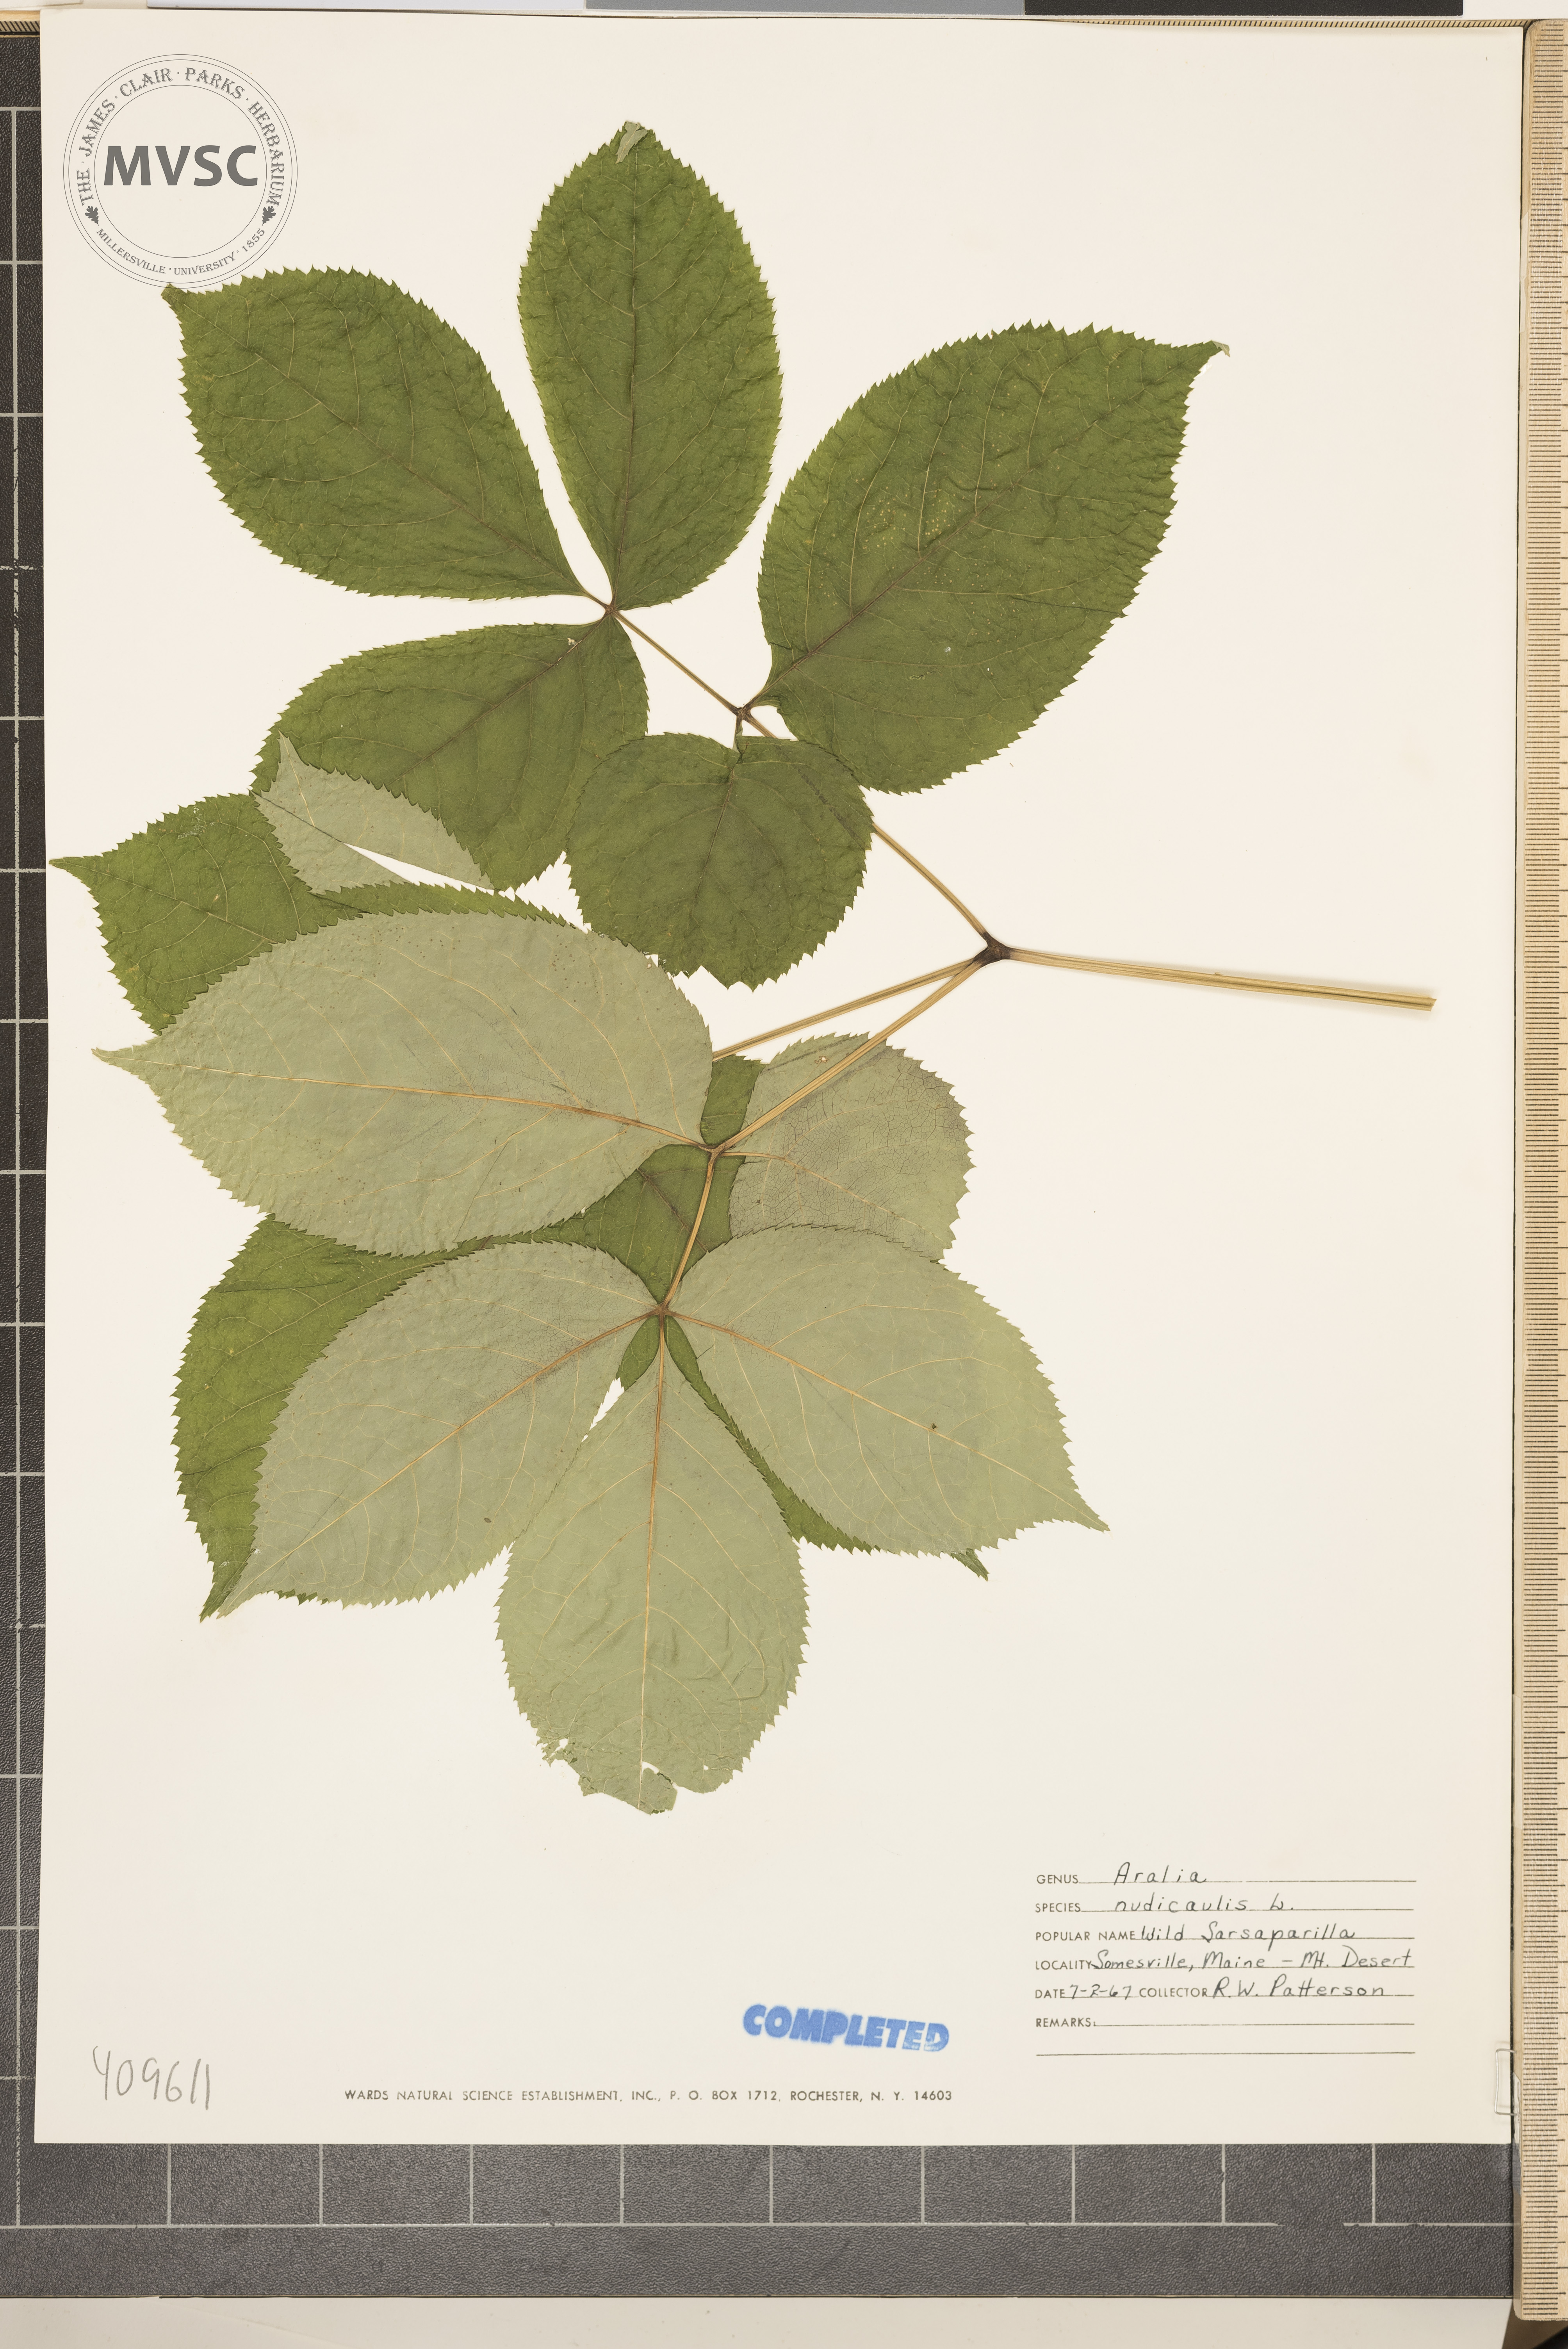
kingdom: Plantae
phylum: Tracheophyta
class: Magnoliopsida
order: Apiales
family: Araliaceae
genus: Aralia
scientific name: Aralia nudicaulis
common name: Wild sarsaparilla
